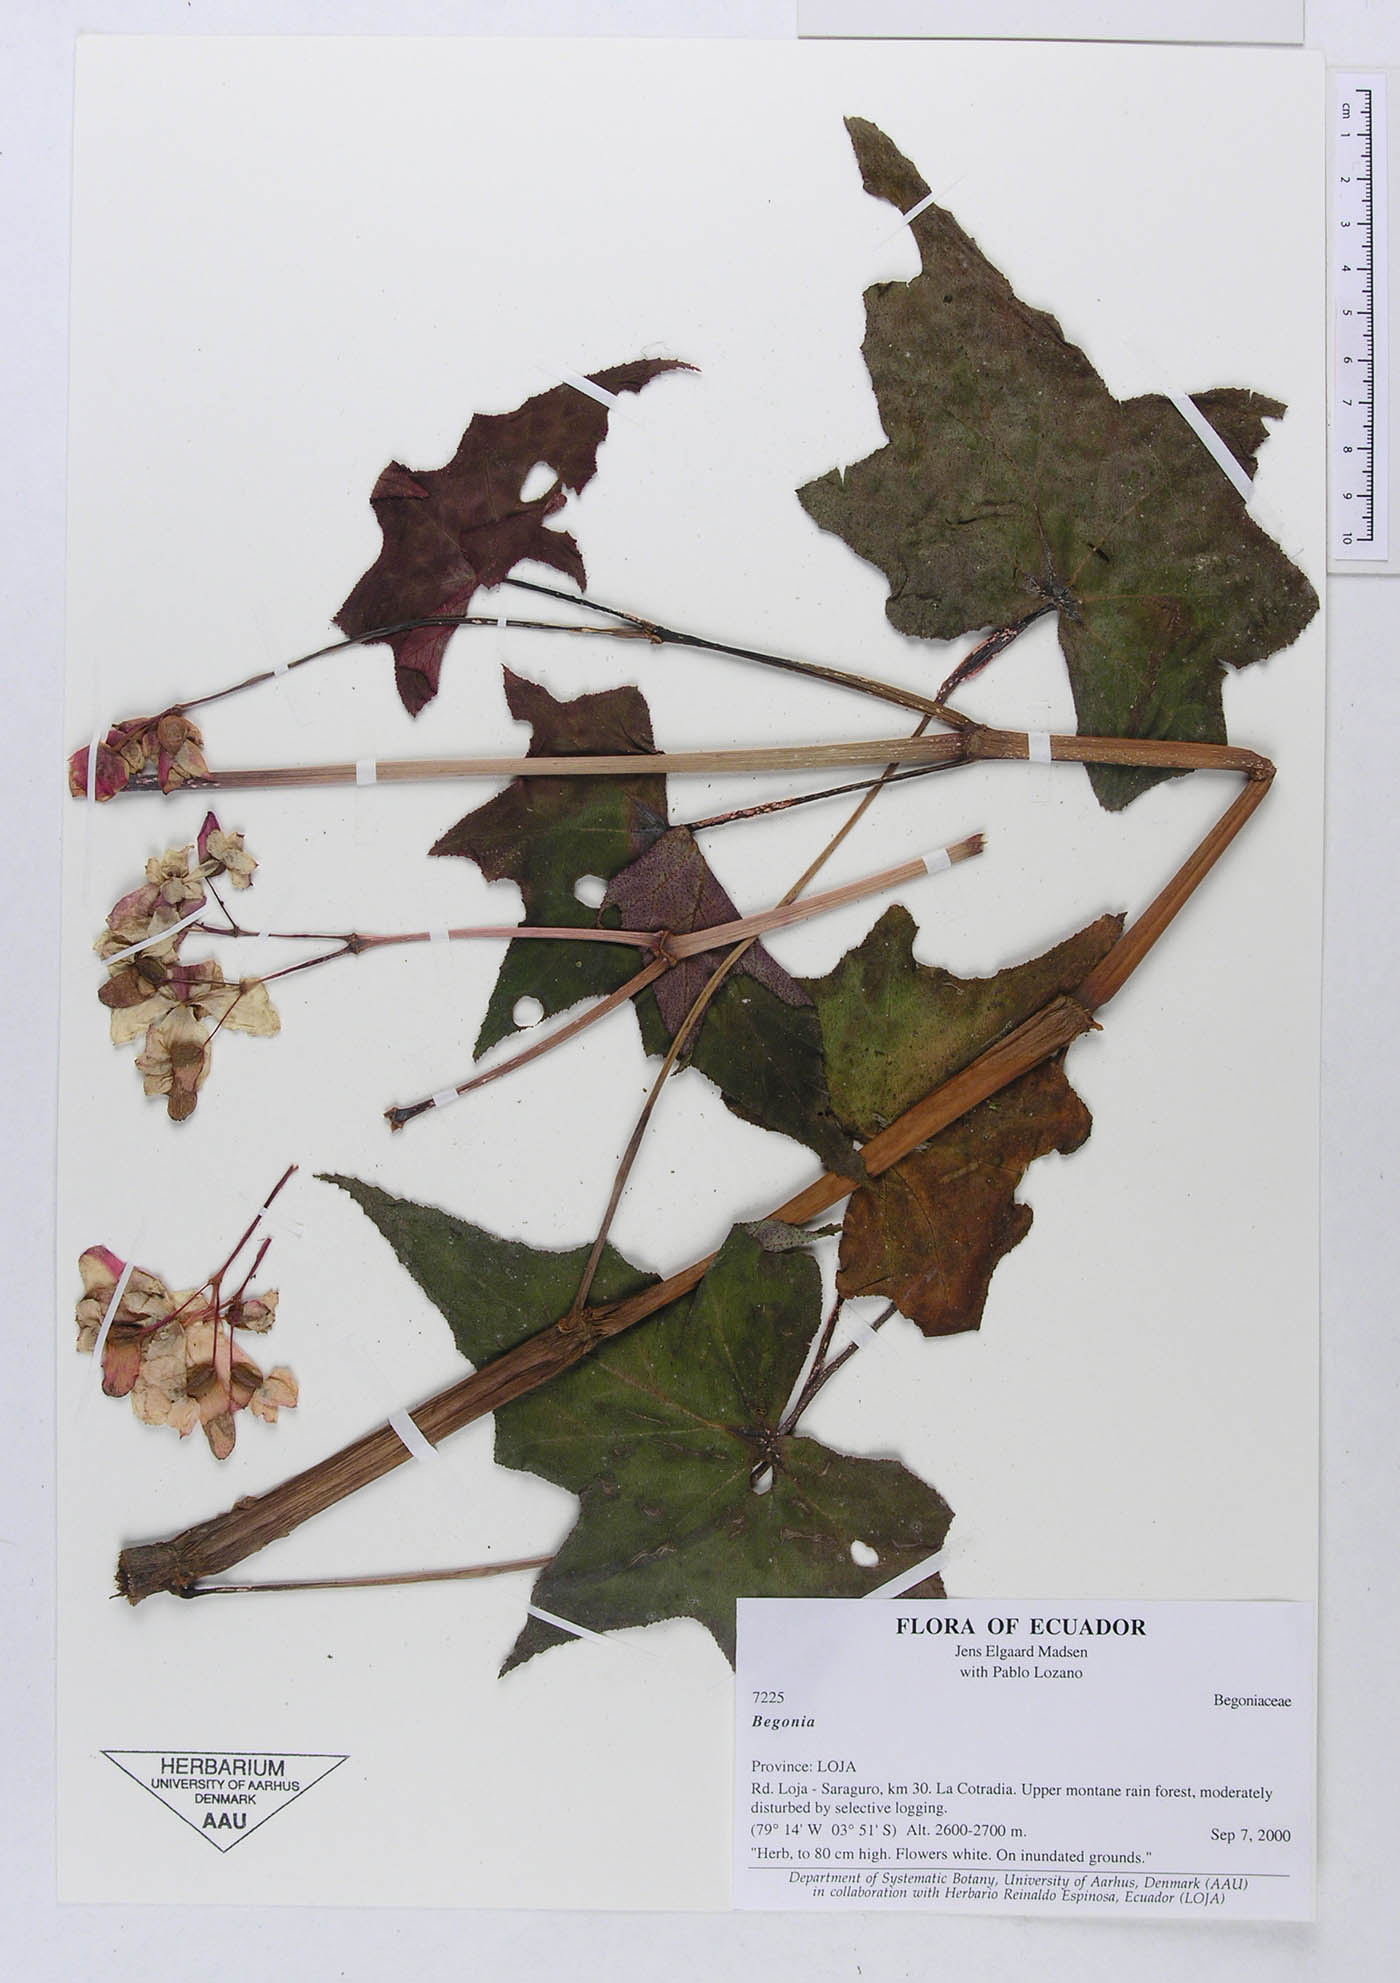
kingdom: Plantae
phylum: Tracheophyta
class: Magnoliopsida
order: Cucurbitales
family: Begoniaceae
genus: Begonia
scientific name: Begonia acerifolia
